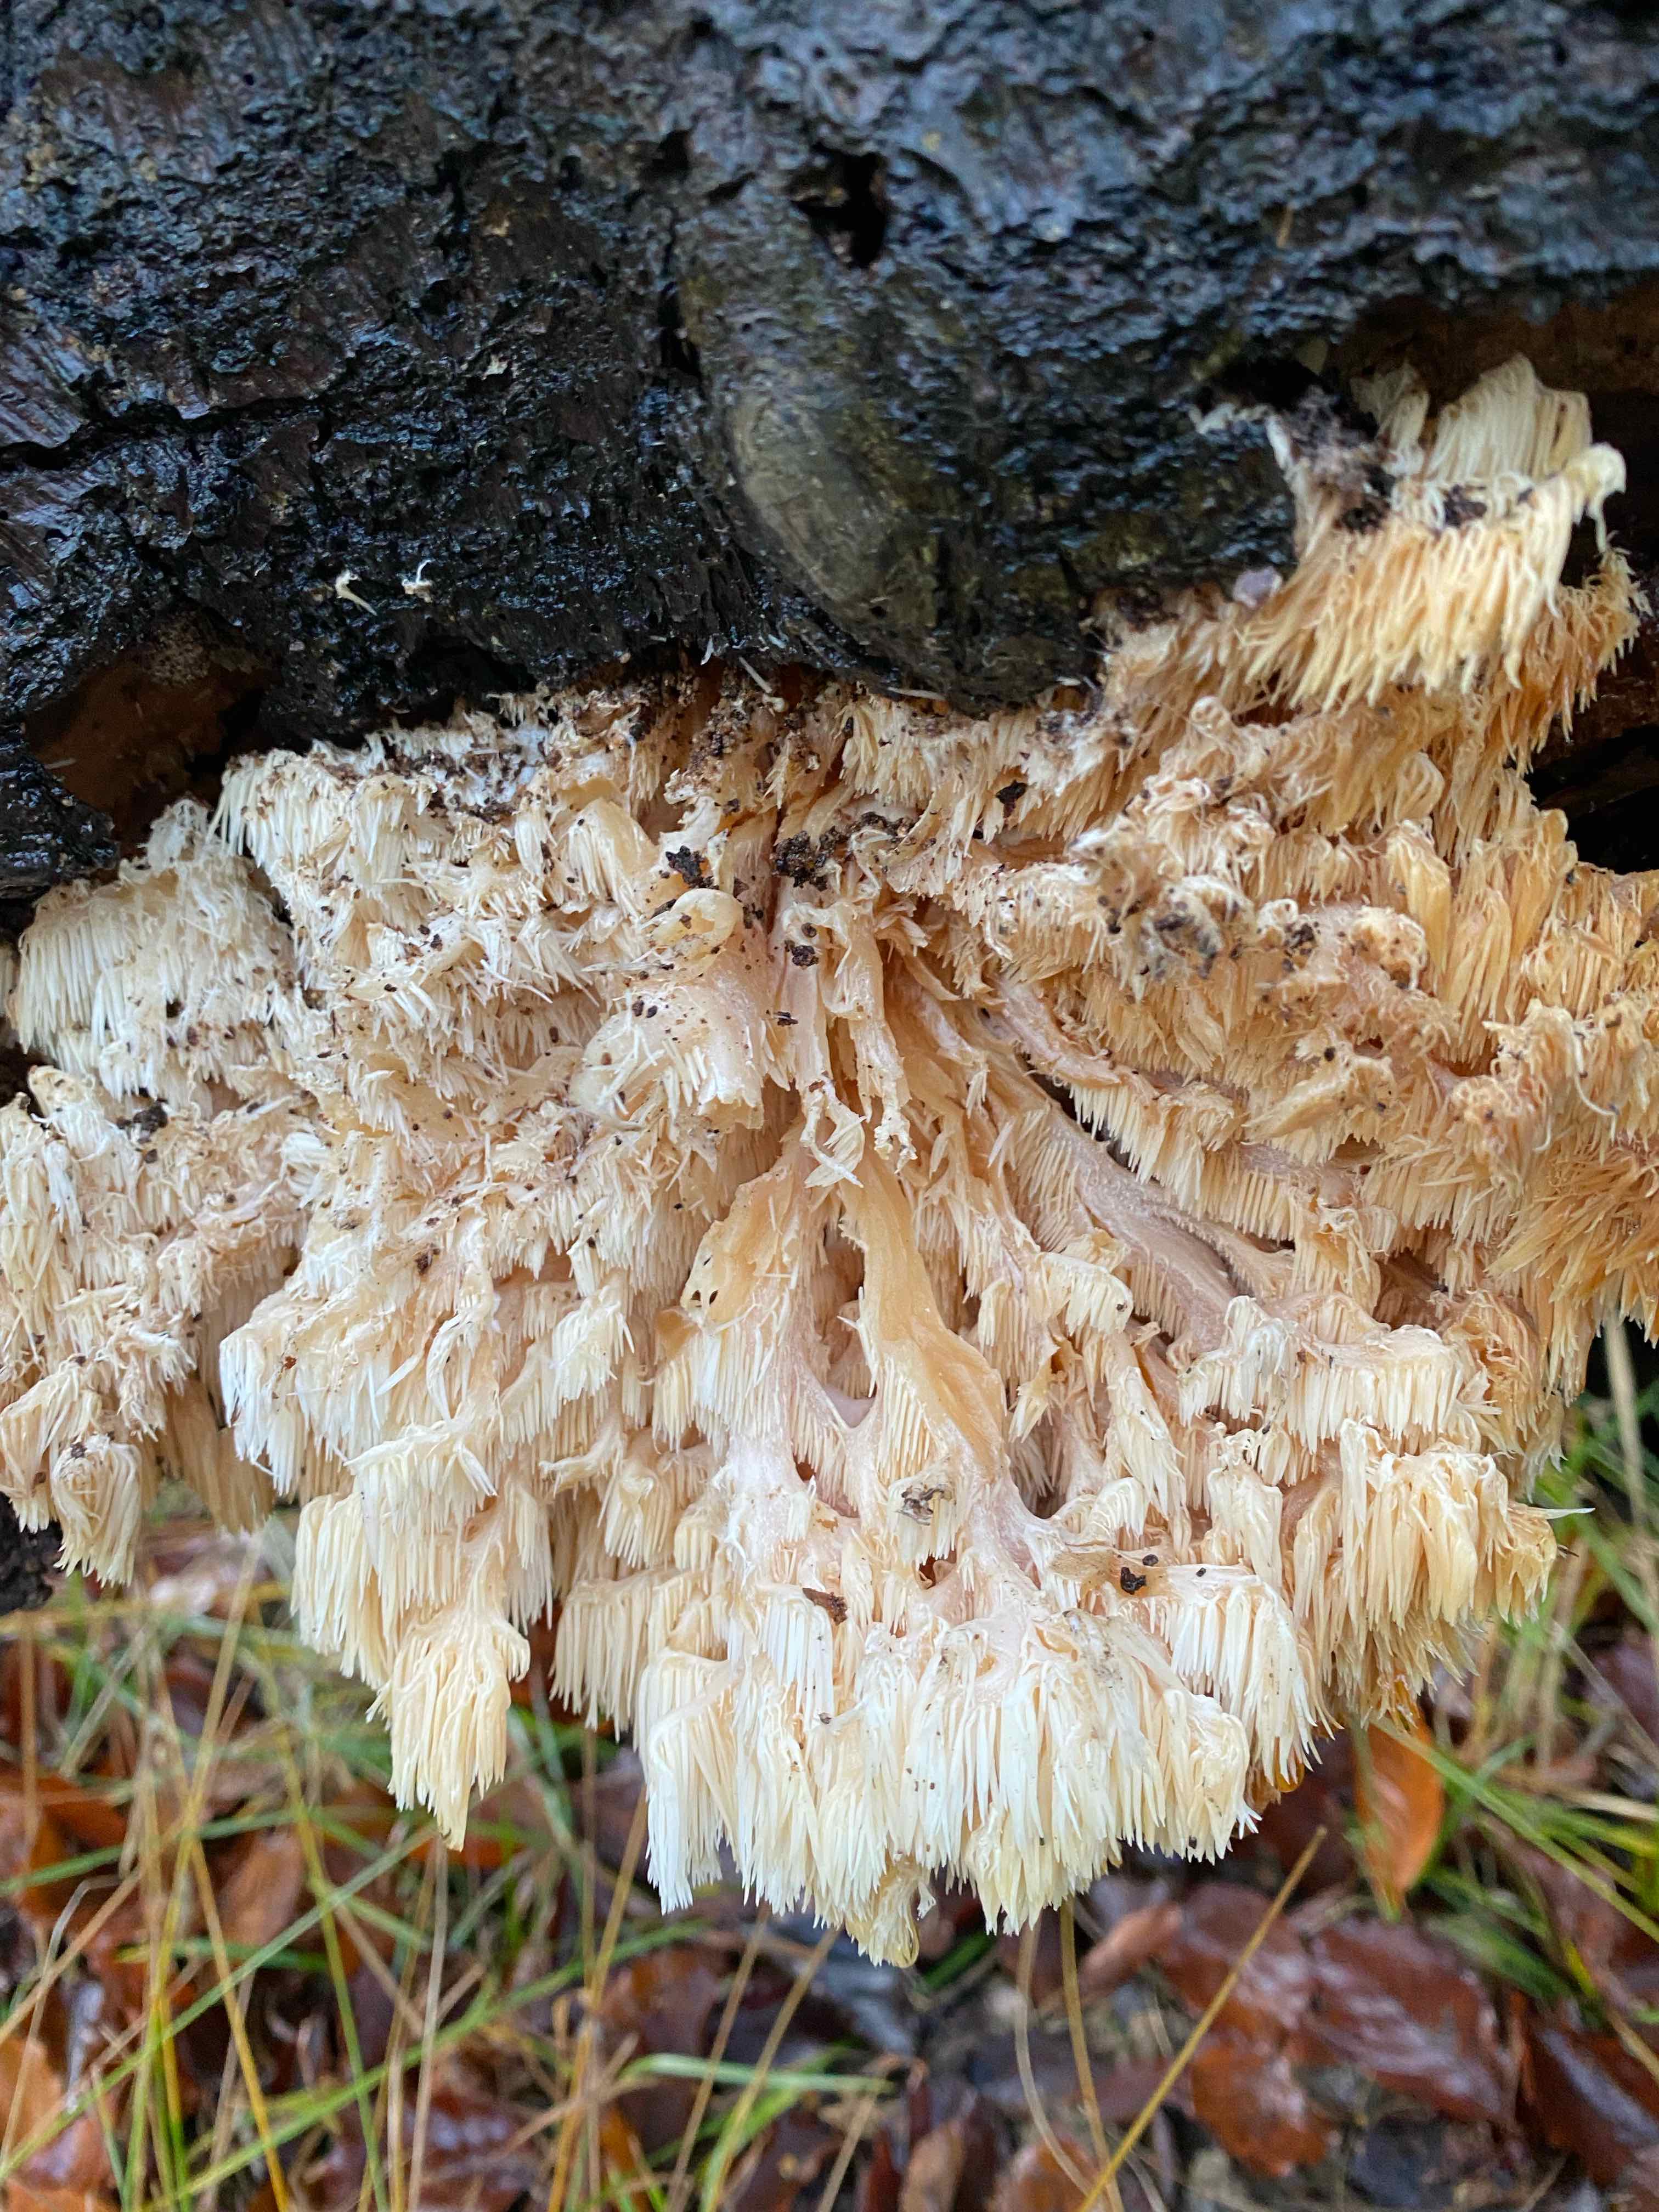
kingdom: Fungi
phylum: Basidiomycota
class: Agaricomycetes
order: Russulales
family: Hericiaceae
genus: Hericium
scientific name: Hericium coralloides
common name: koralpigsvamp
